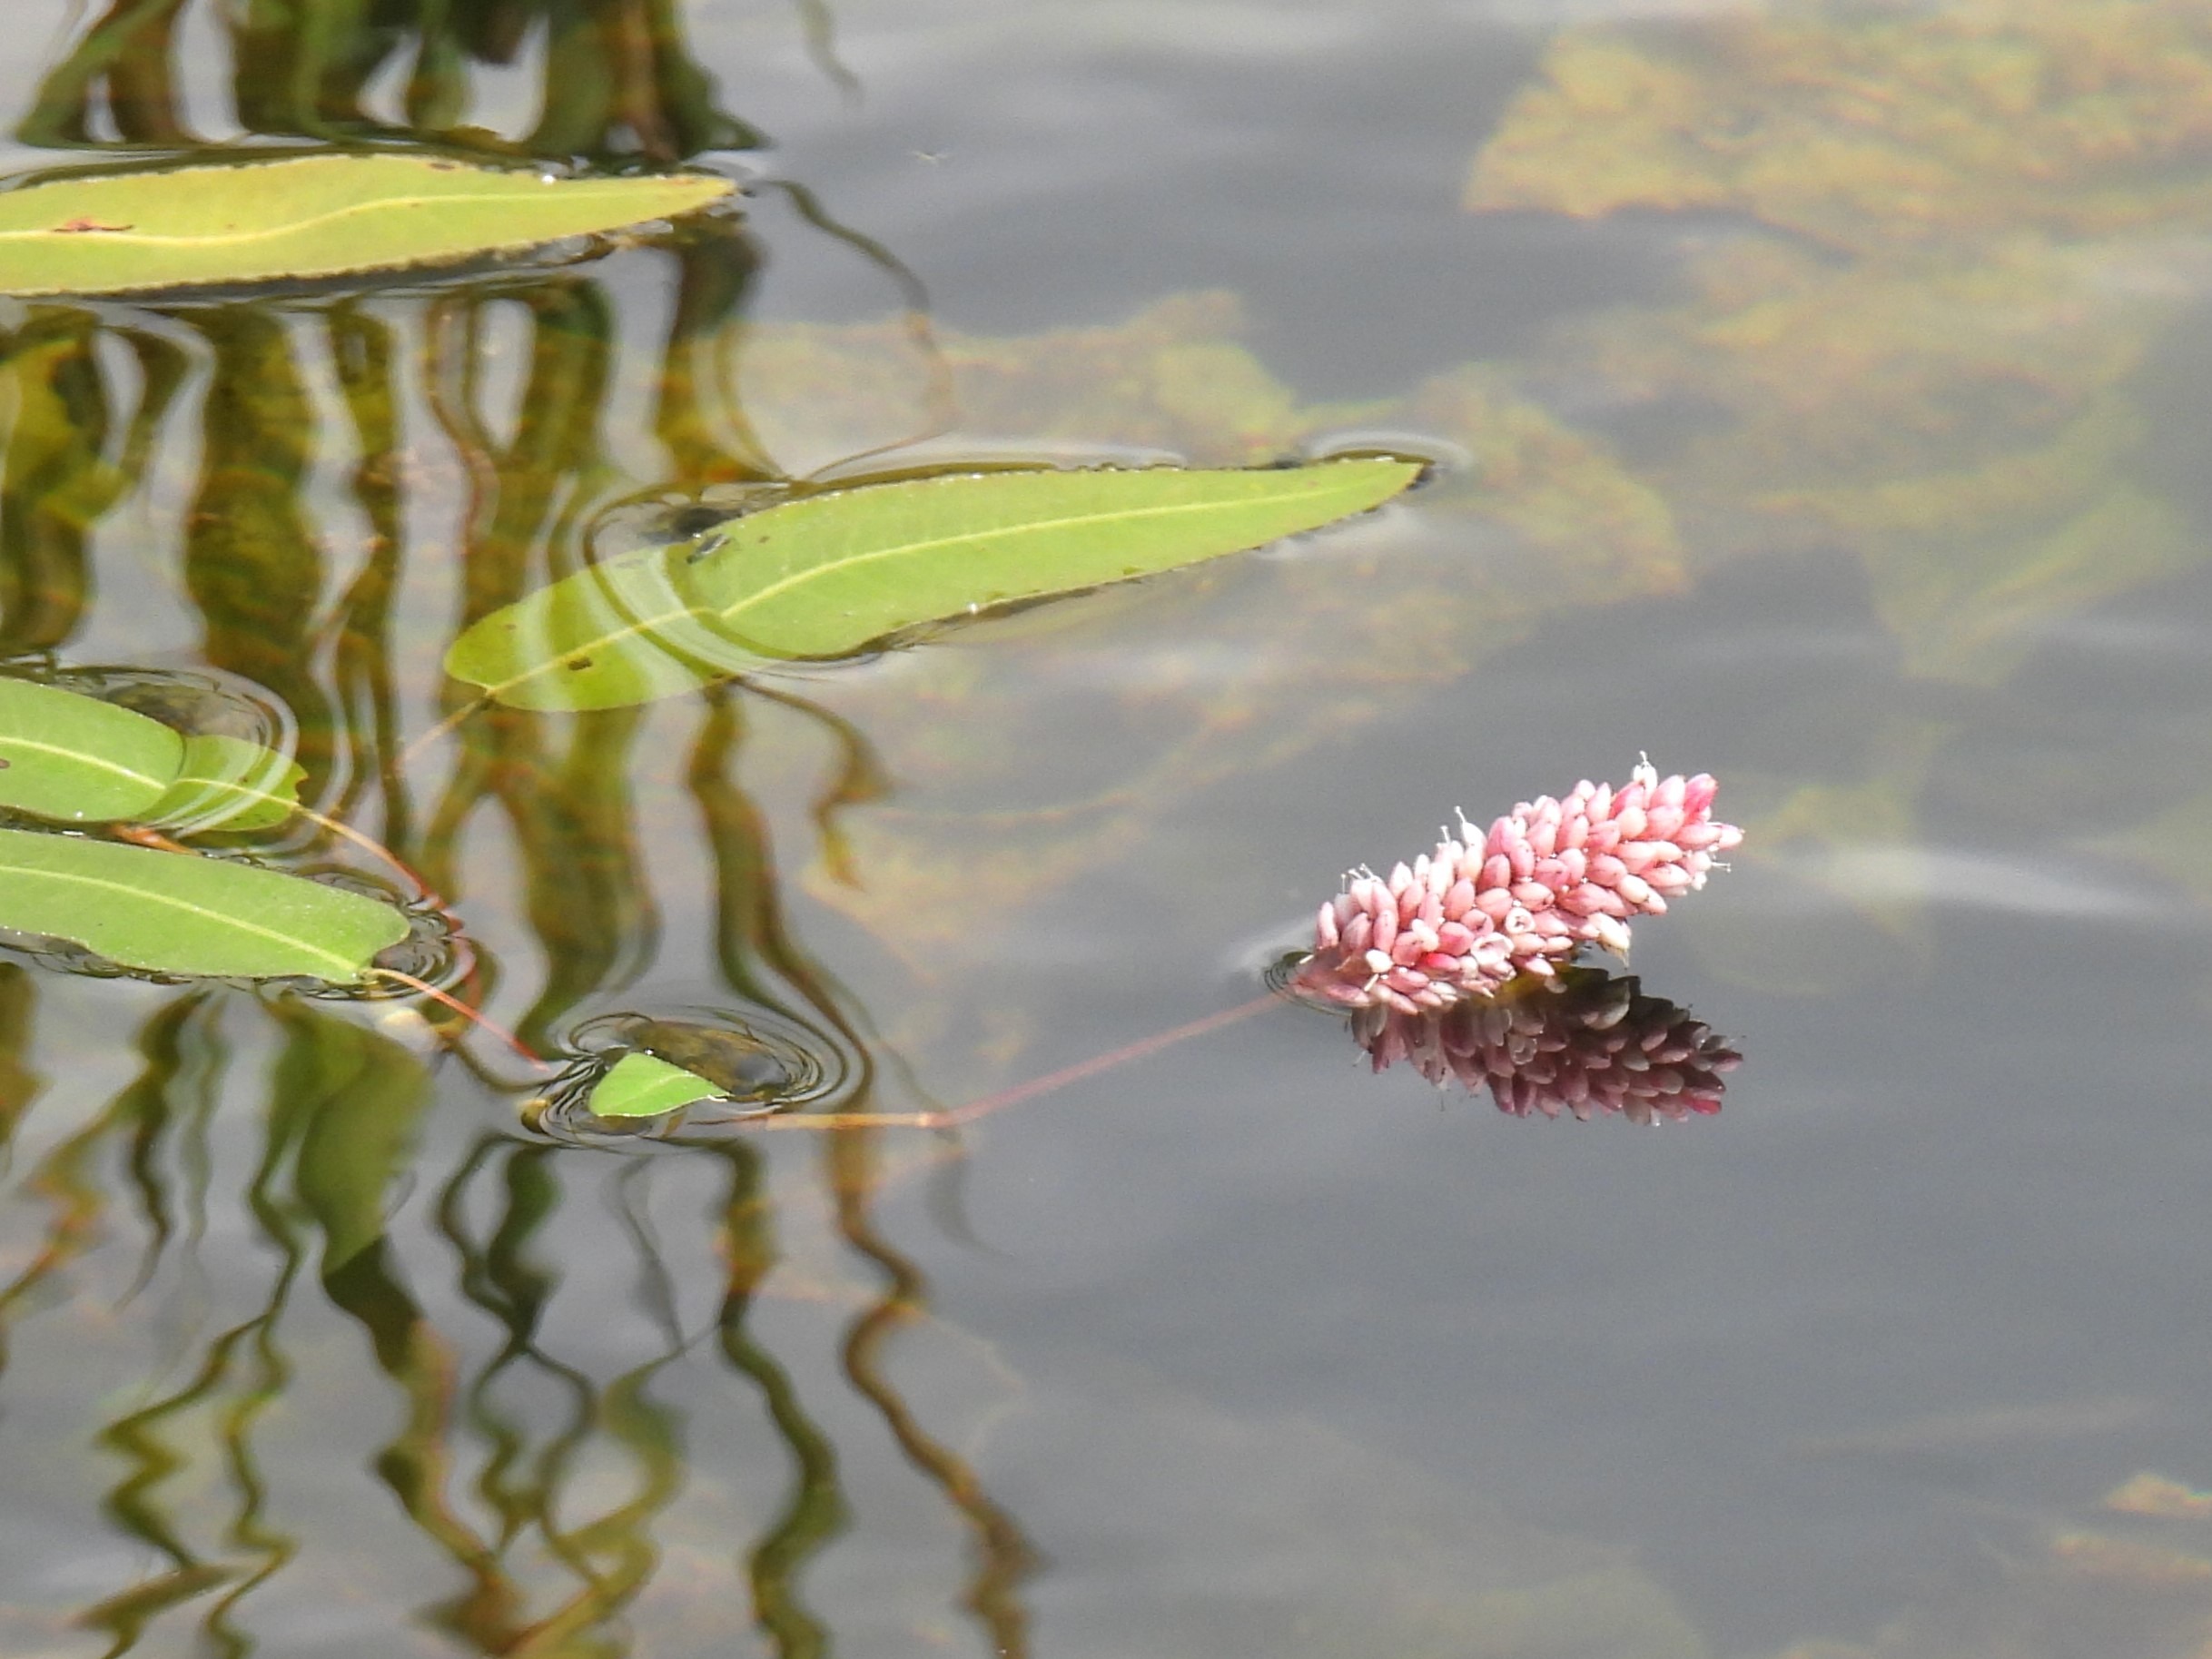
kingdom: Plantae
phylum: Tracheophyta
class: Magnoliopsida
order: Caryophyllales
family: Polygonaceae
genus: Persicaria
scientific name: Persicaria amphibia
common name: Vand-pileurt
